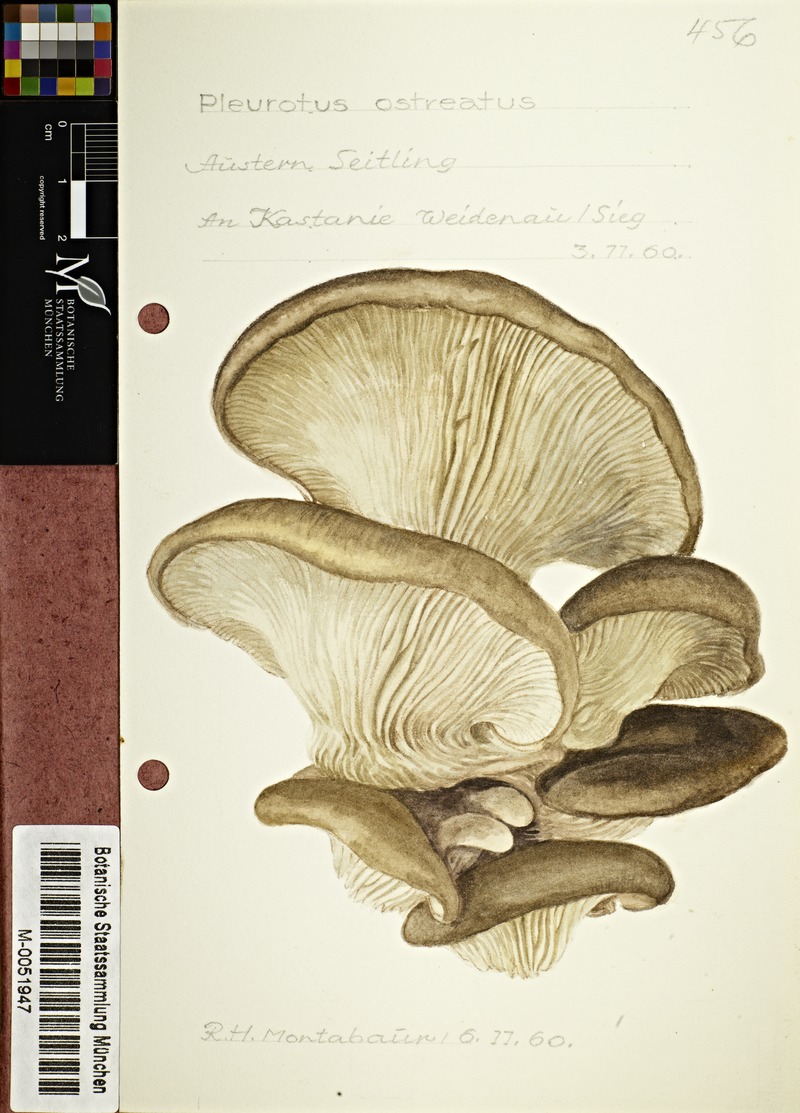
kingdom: Fungi
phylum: Basidiomycota
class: Agaricomycetes
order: Agaricales
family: Pleurotaceae
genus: Pleurotus
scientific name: Pleurotus ostreatus
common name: Oyster mushroom
